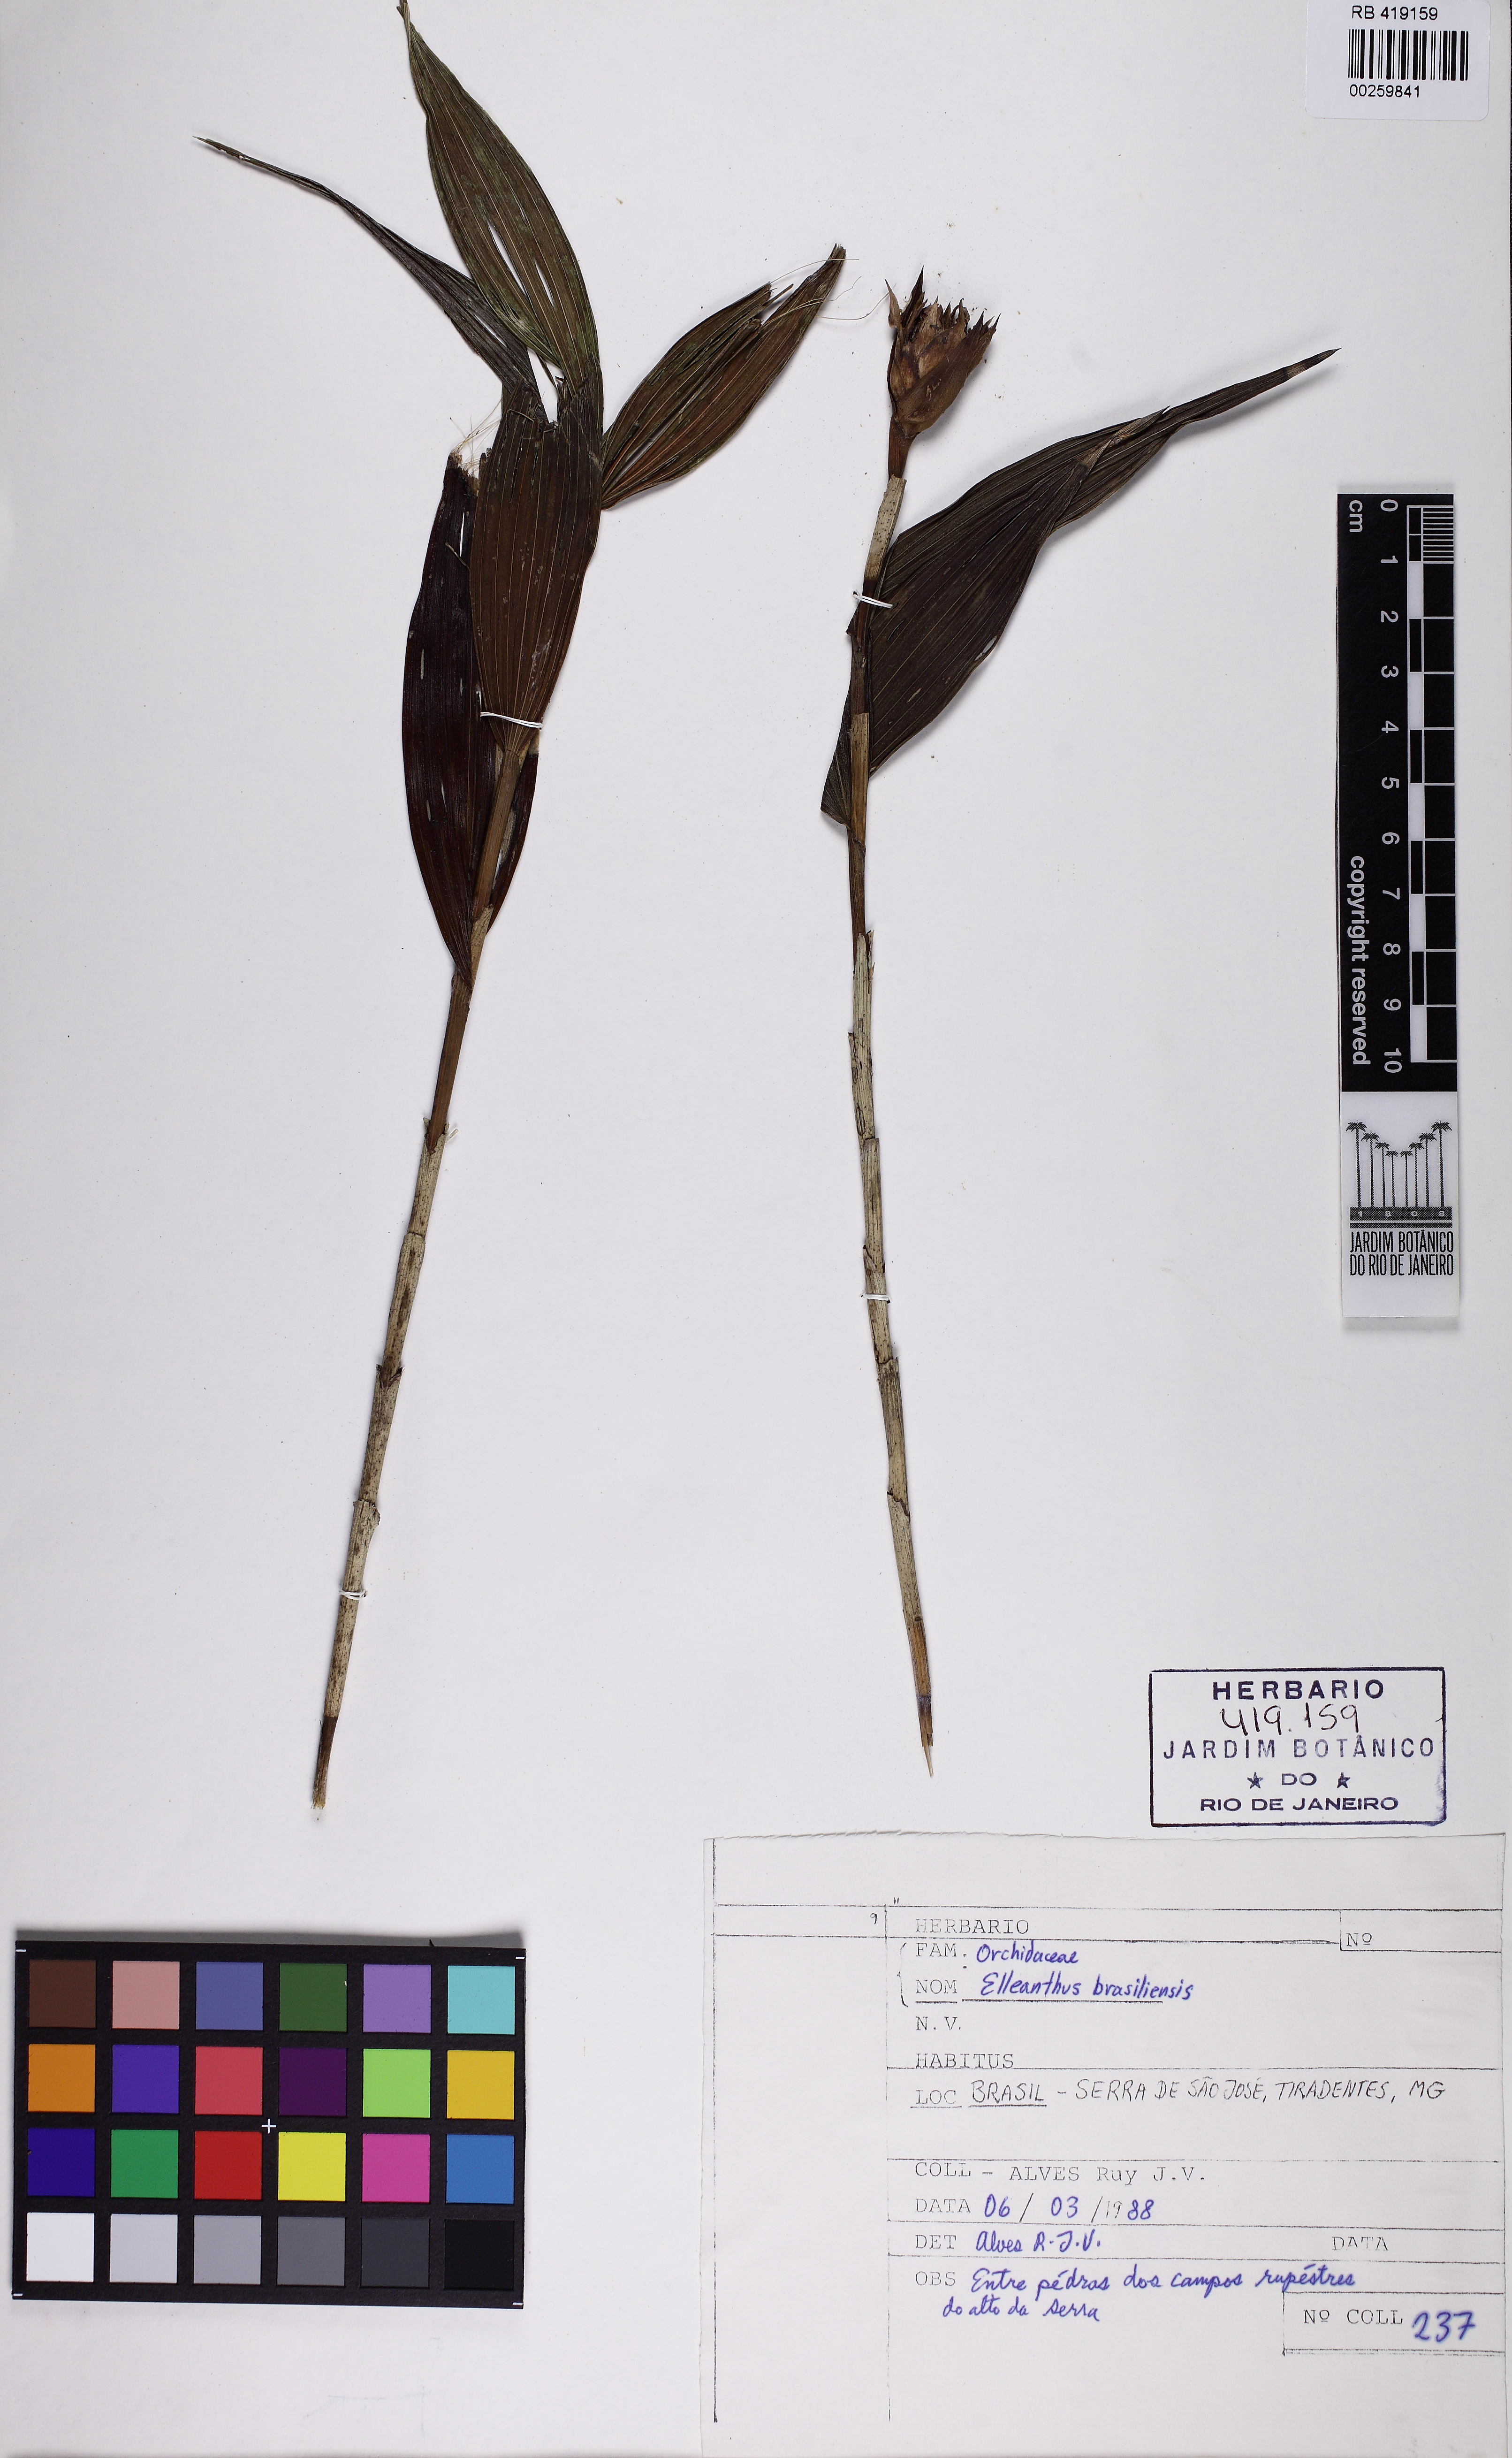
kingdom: Plantae
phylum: Tracheophyta
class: Liliopsida
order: Asparagales
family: Orchidaceae
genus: Elleanthus
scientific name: Elleanthus brasiliensis
